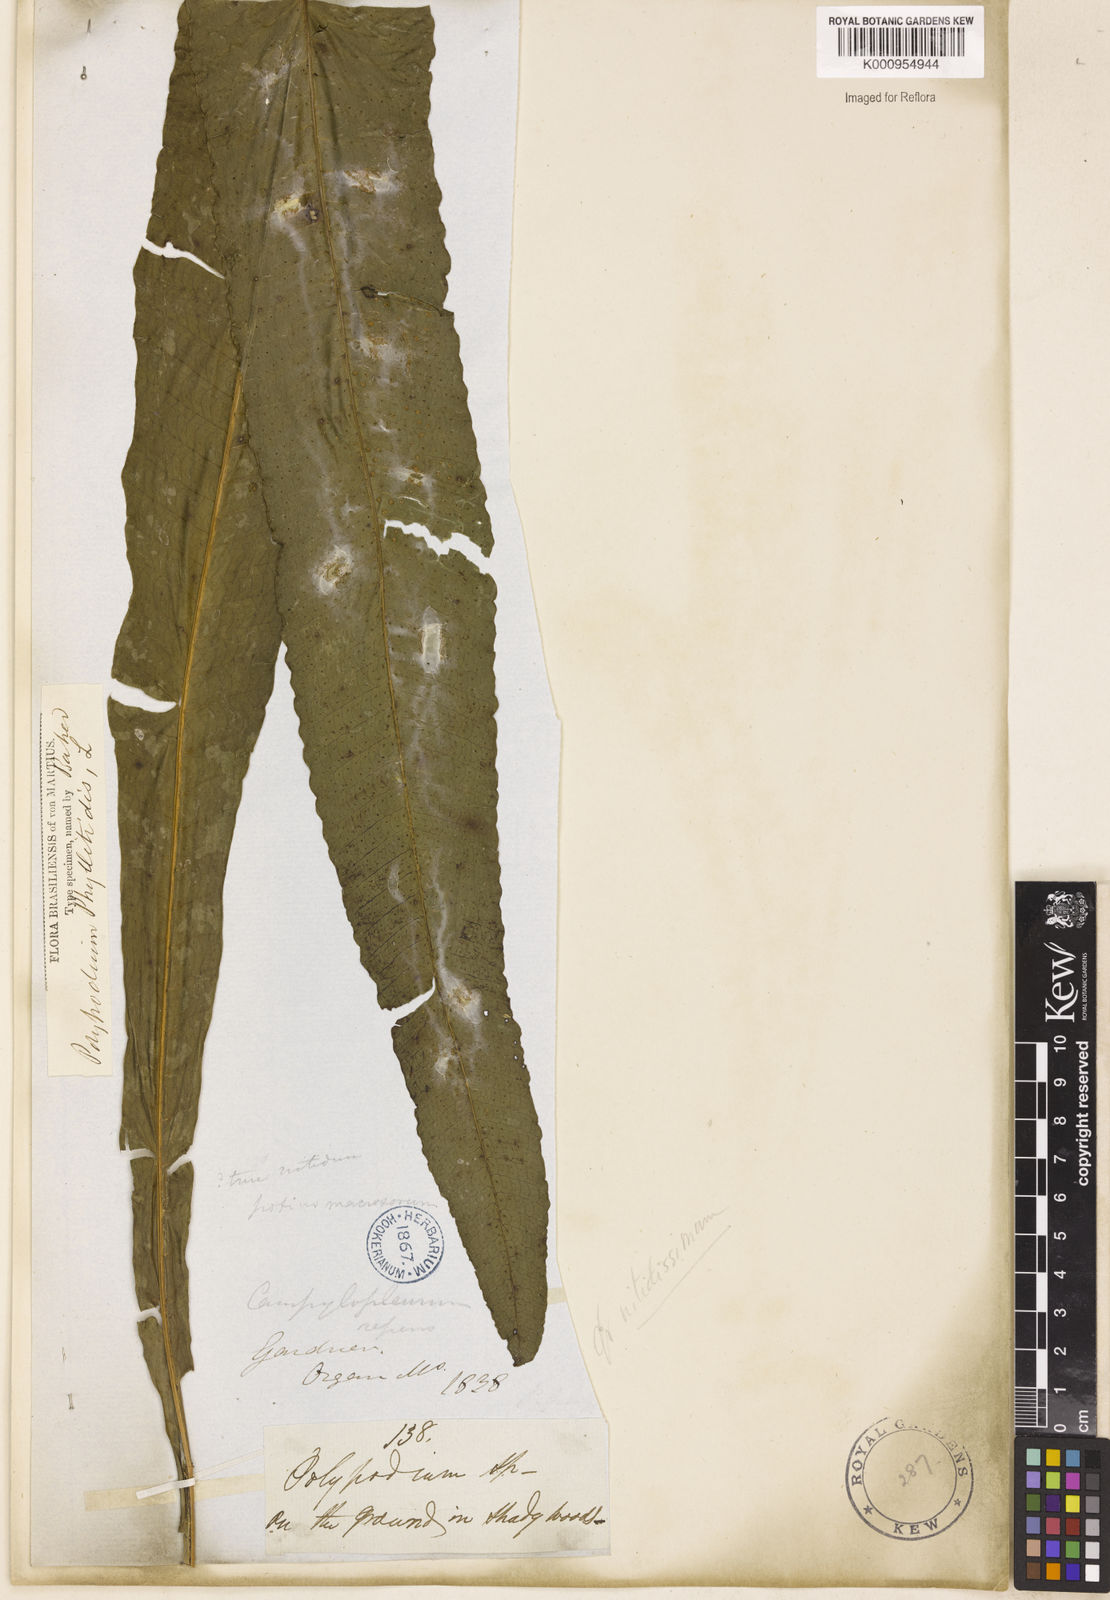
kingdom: Plantae
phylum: Tracheophyta
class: Polypodiopsida
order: Polypodiales
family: Polypodiaceae
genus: Campyloneurum
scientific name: Campyloneurum repens
